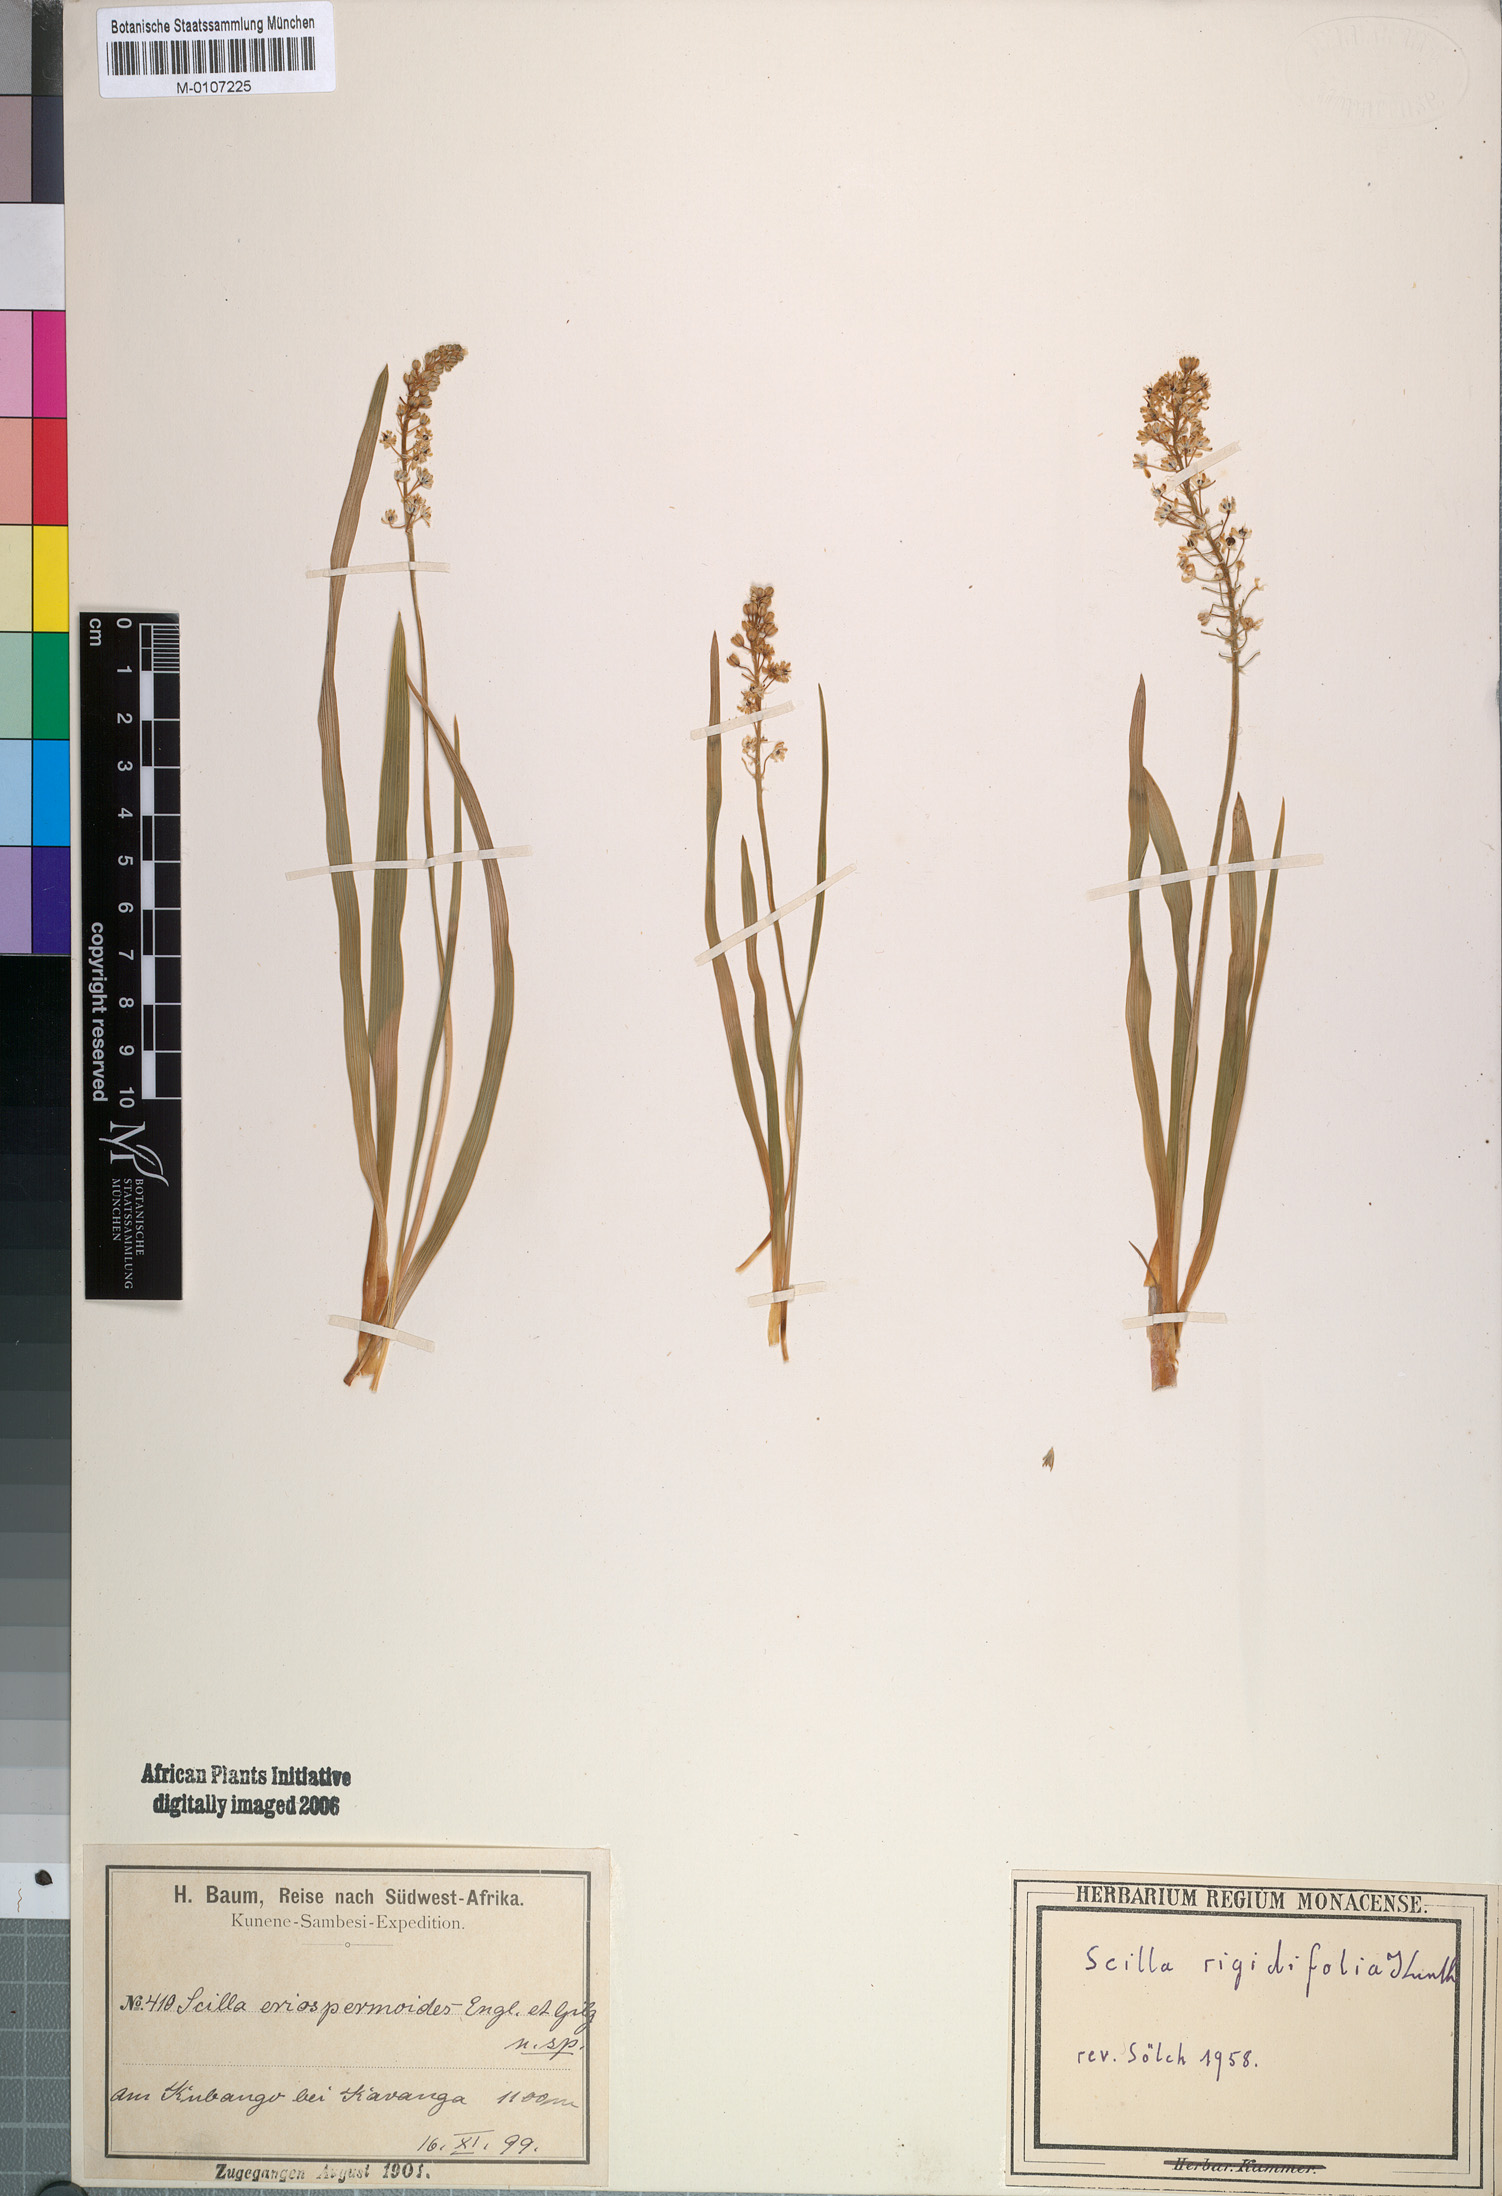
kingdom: Plantae
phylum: Tracheophyta
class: Liliopsida
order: Asparagales
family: Asparagaceae
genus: Schizocarphus
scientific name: Schizocarphus nervosus
